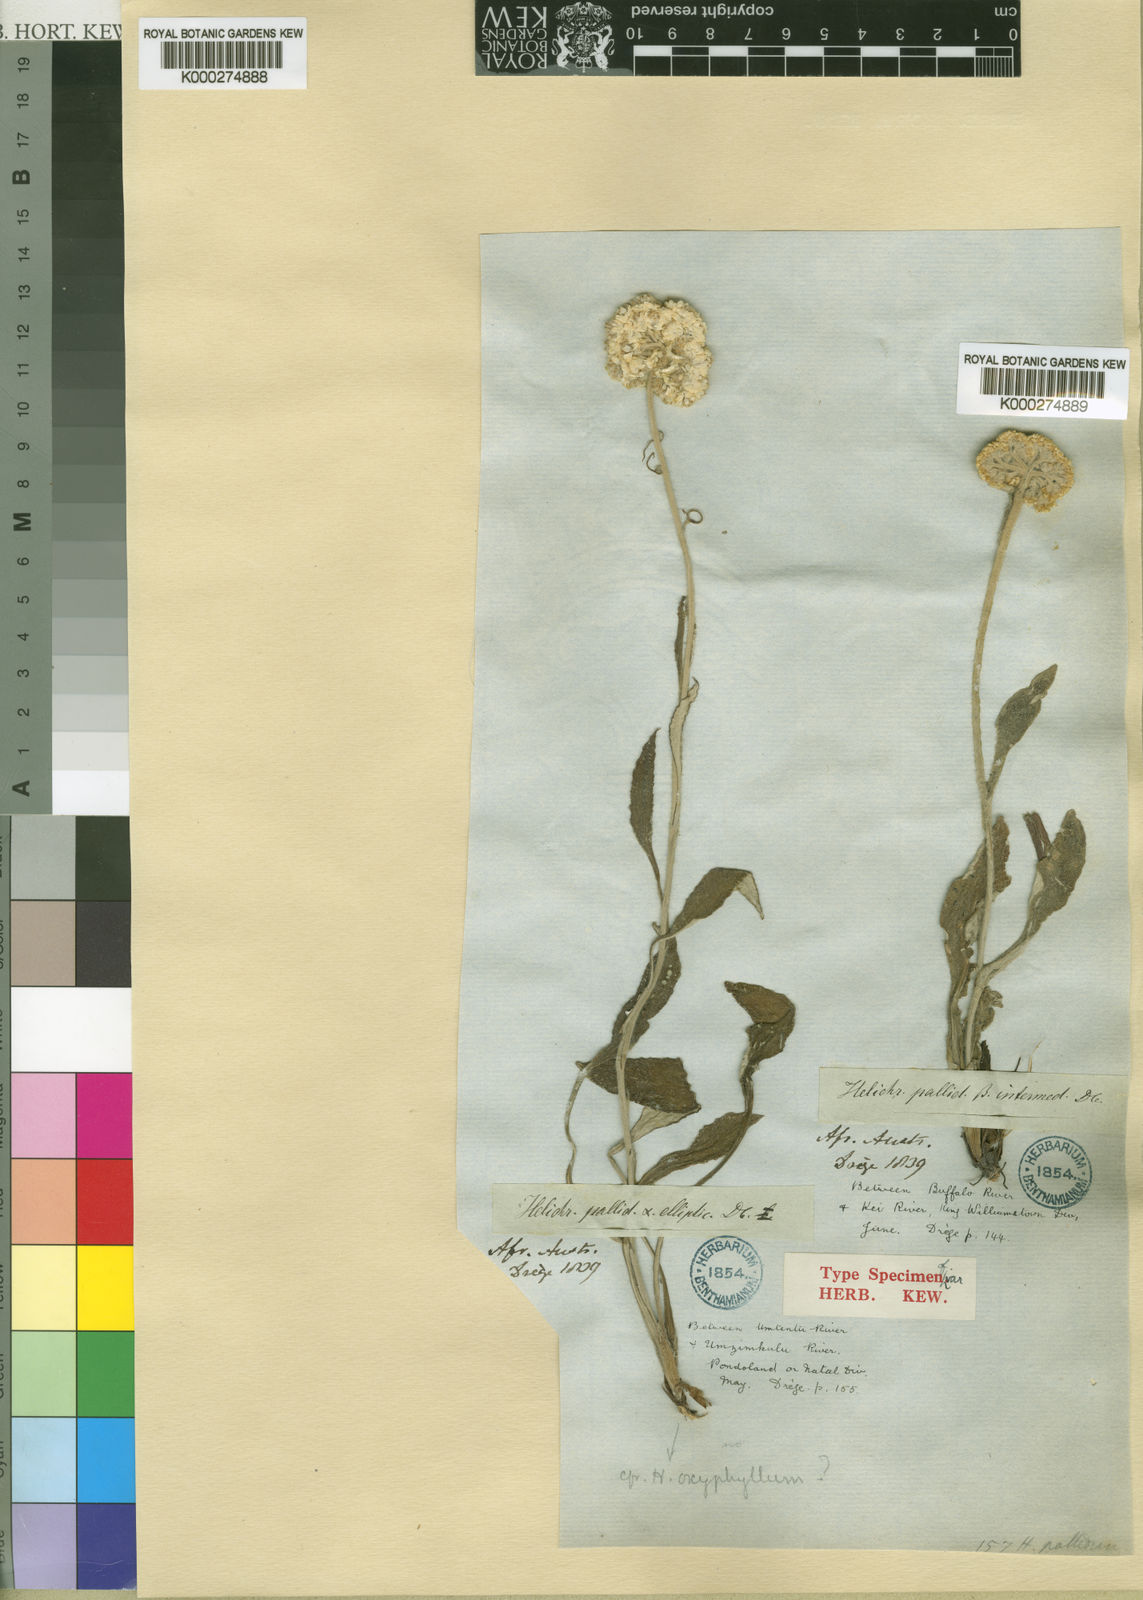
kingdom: Plantae
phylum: Tracheophyta
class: Magnoliopsida
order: Asterales
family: Asteraceae
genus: Helichrysum
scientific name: Helichrysum pallidum
